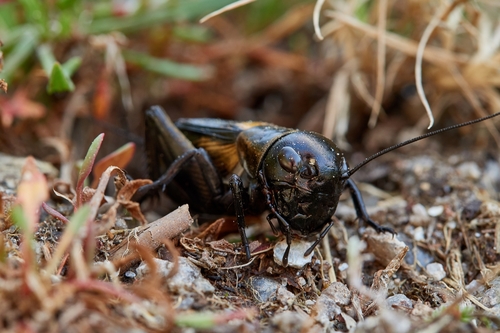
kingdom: Animalia
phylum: Arthropoda
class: Insecta
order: Orthoptera
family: Gryllidae
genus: Gryllus
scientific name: Gryllus campestris
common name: Field cricket
